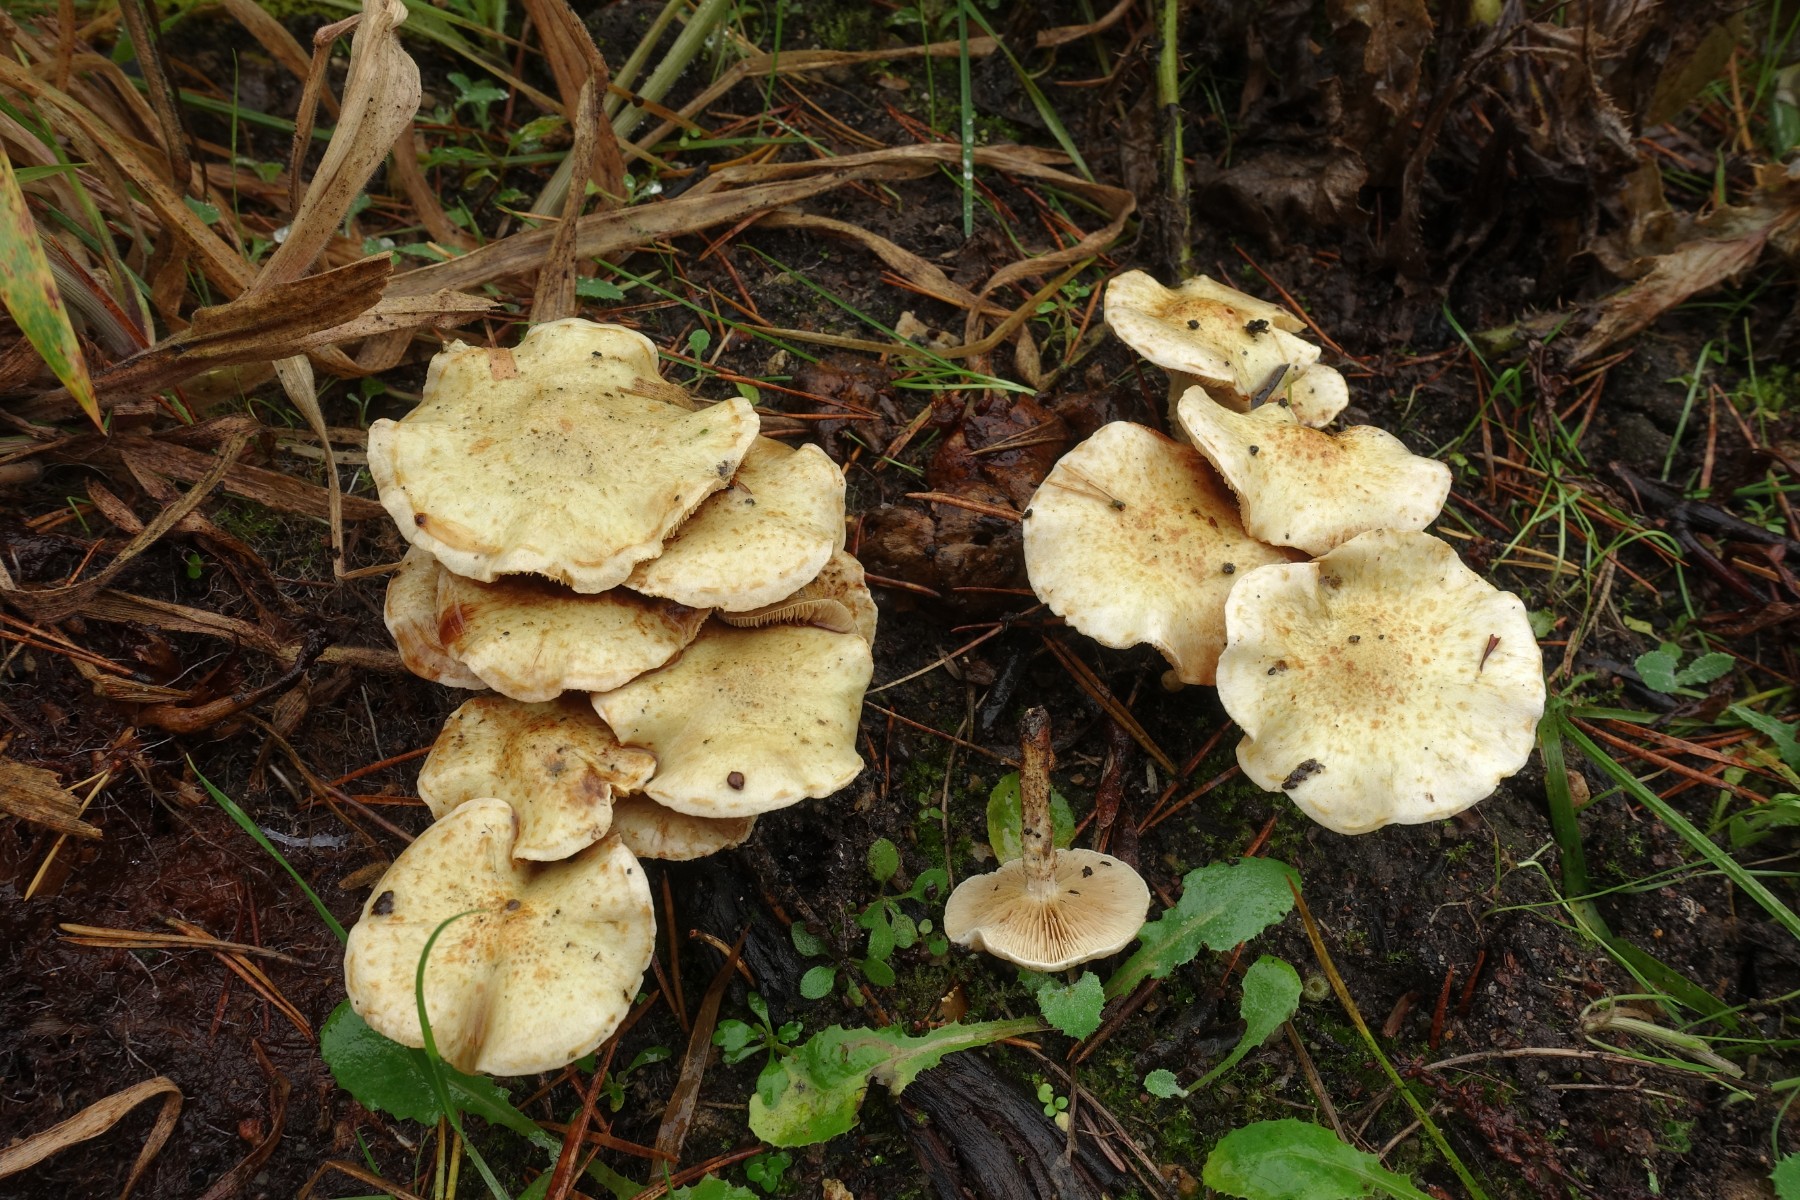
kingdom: Fungi
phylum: Basidiomycota
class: Agaricomycetes
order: Agaricales
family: Strophariaceae
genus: Pholiota
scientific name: Pholiota gummosa
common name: grøngul skælhat
